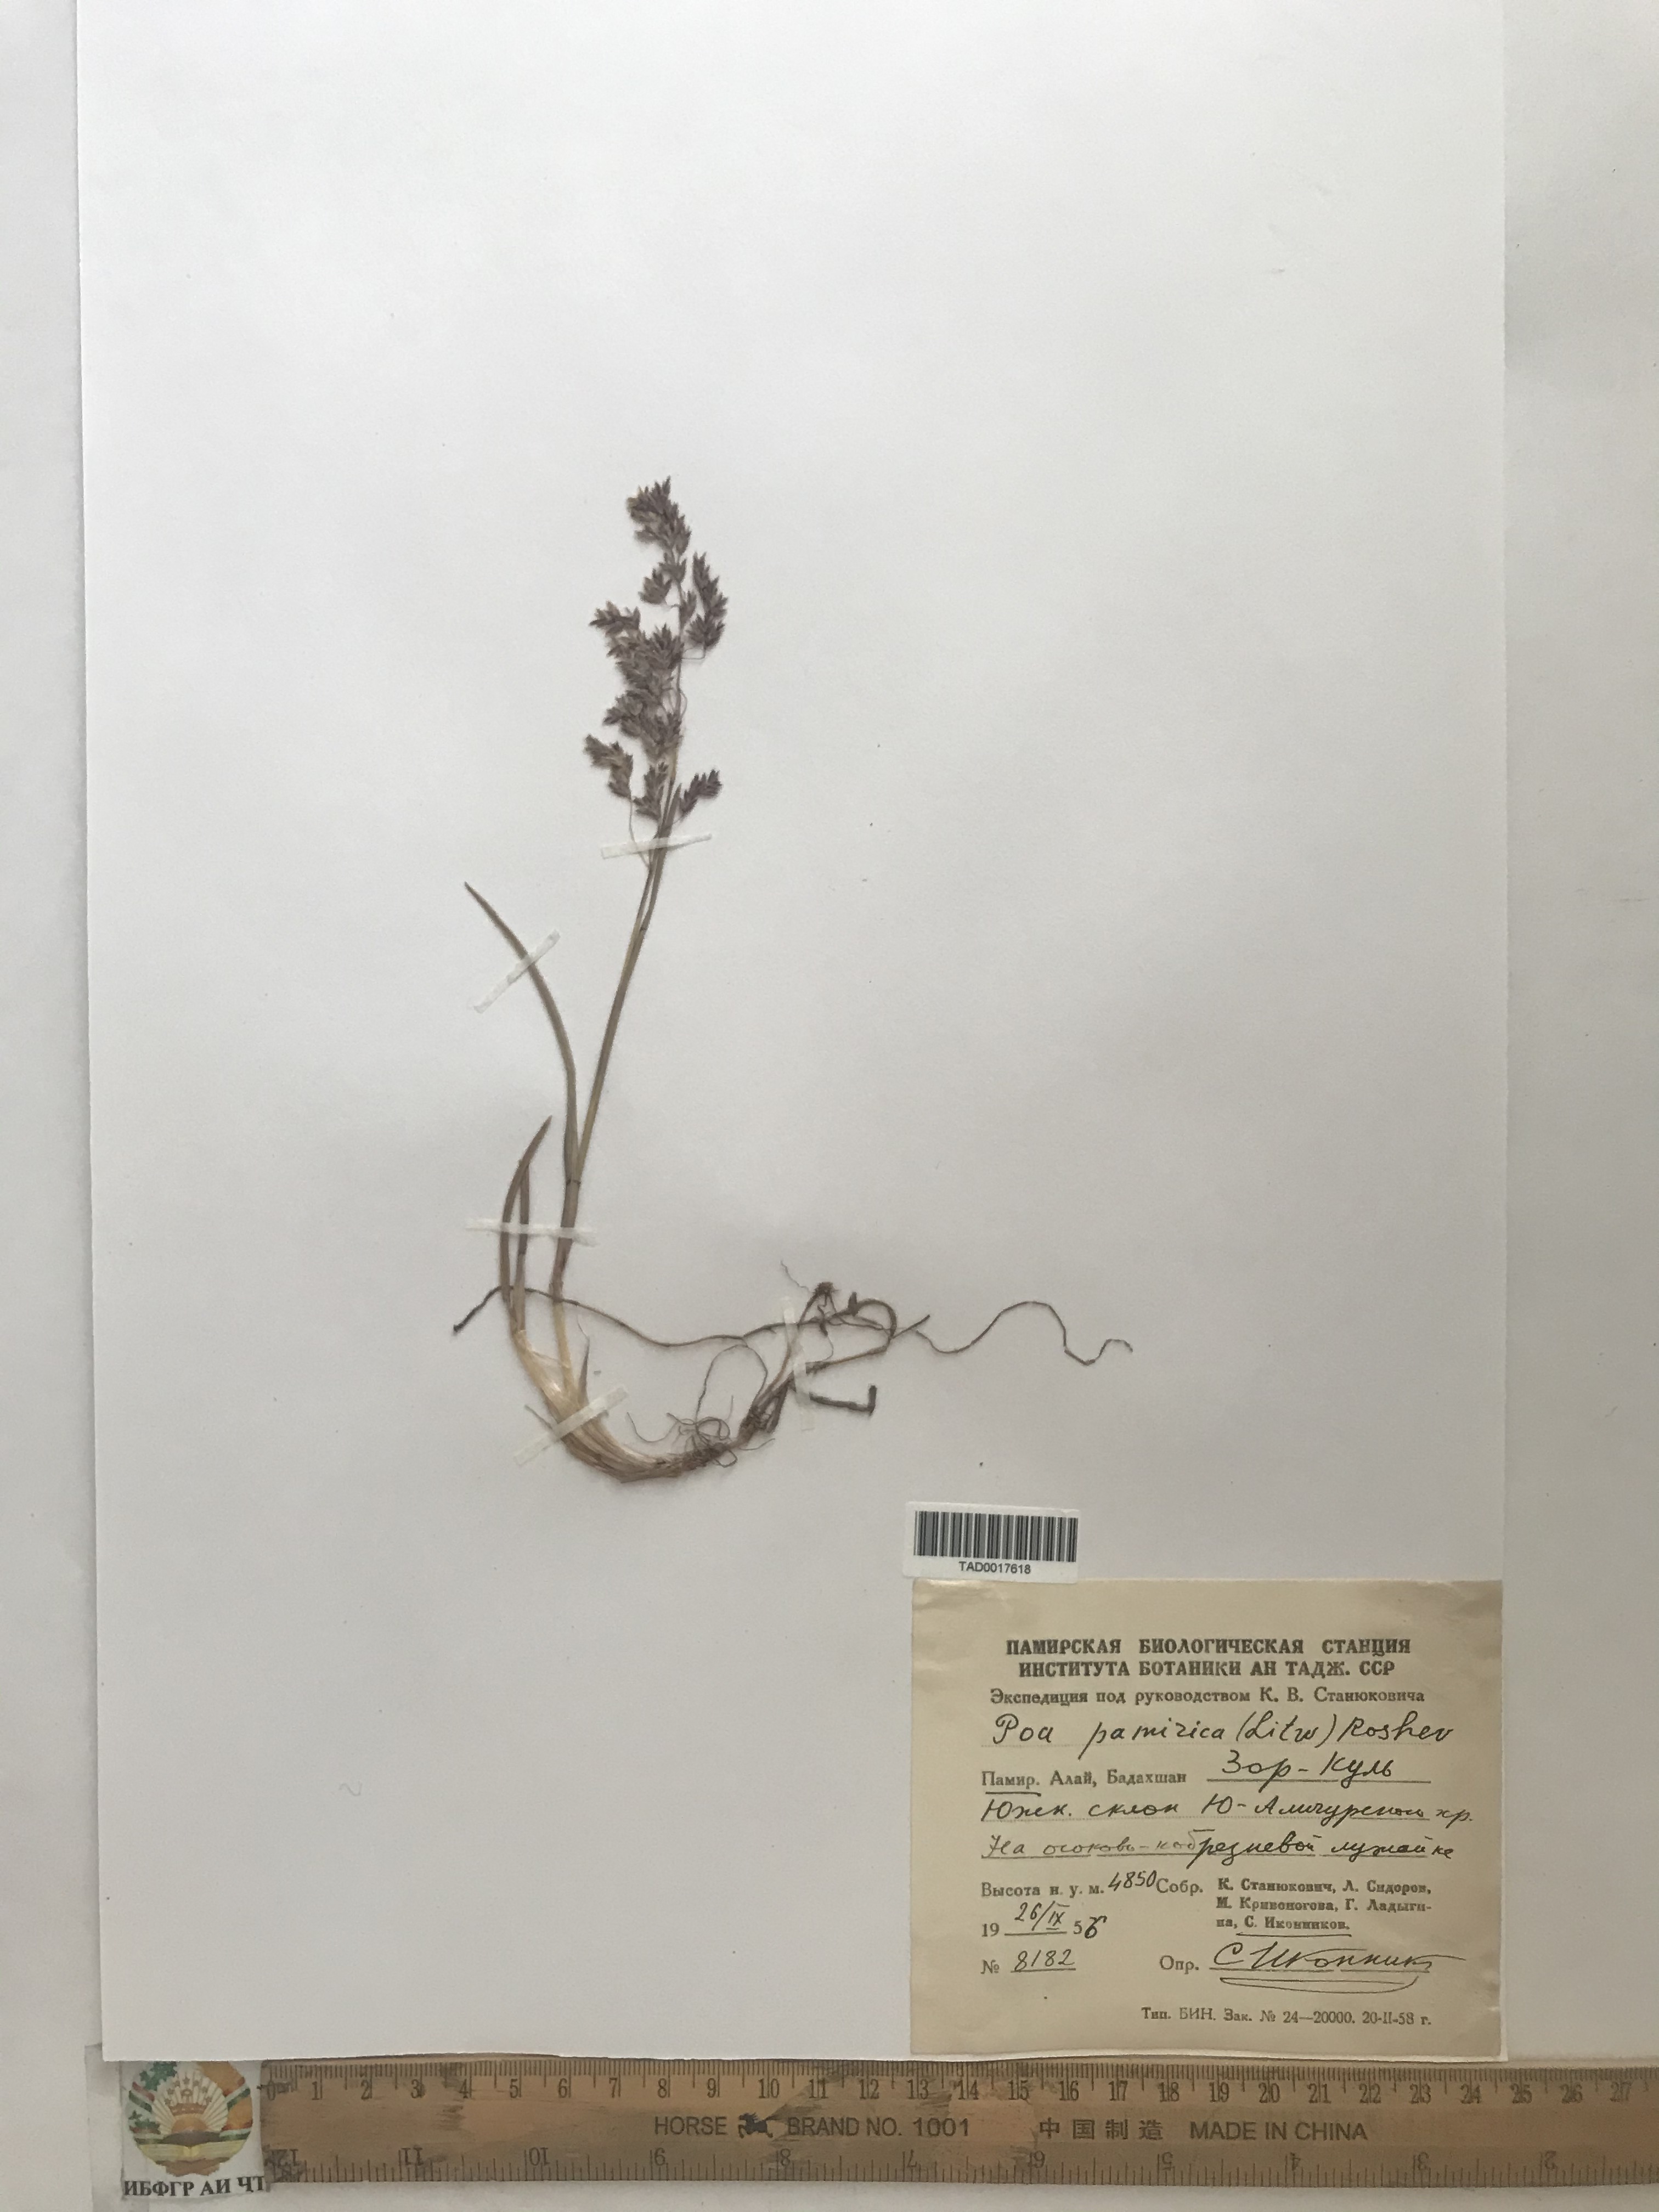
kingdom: Plantae
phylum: Tracheophyta
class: Liliopsida
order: Poales
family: Poaceae
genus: Poa
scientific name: Poa tianschanica
